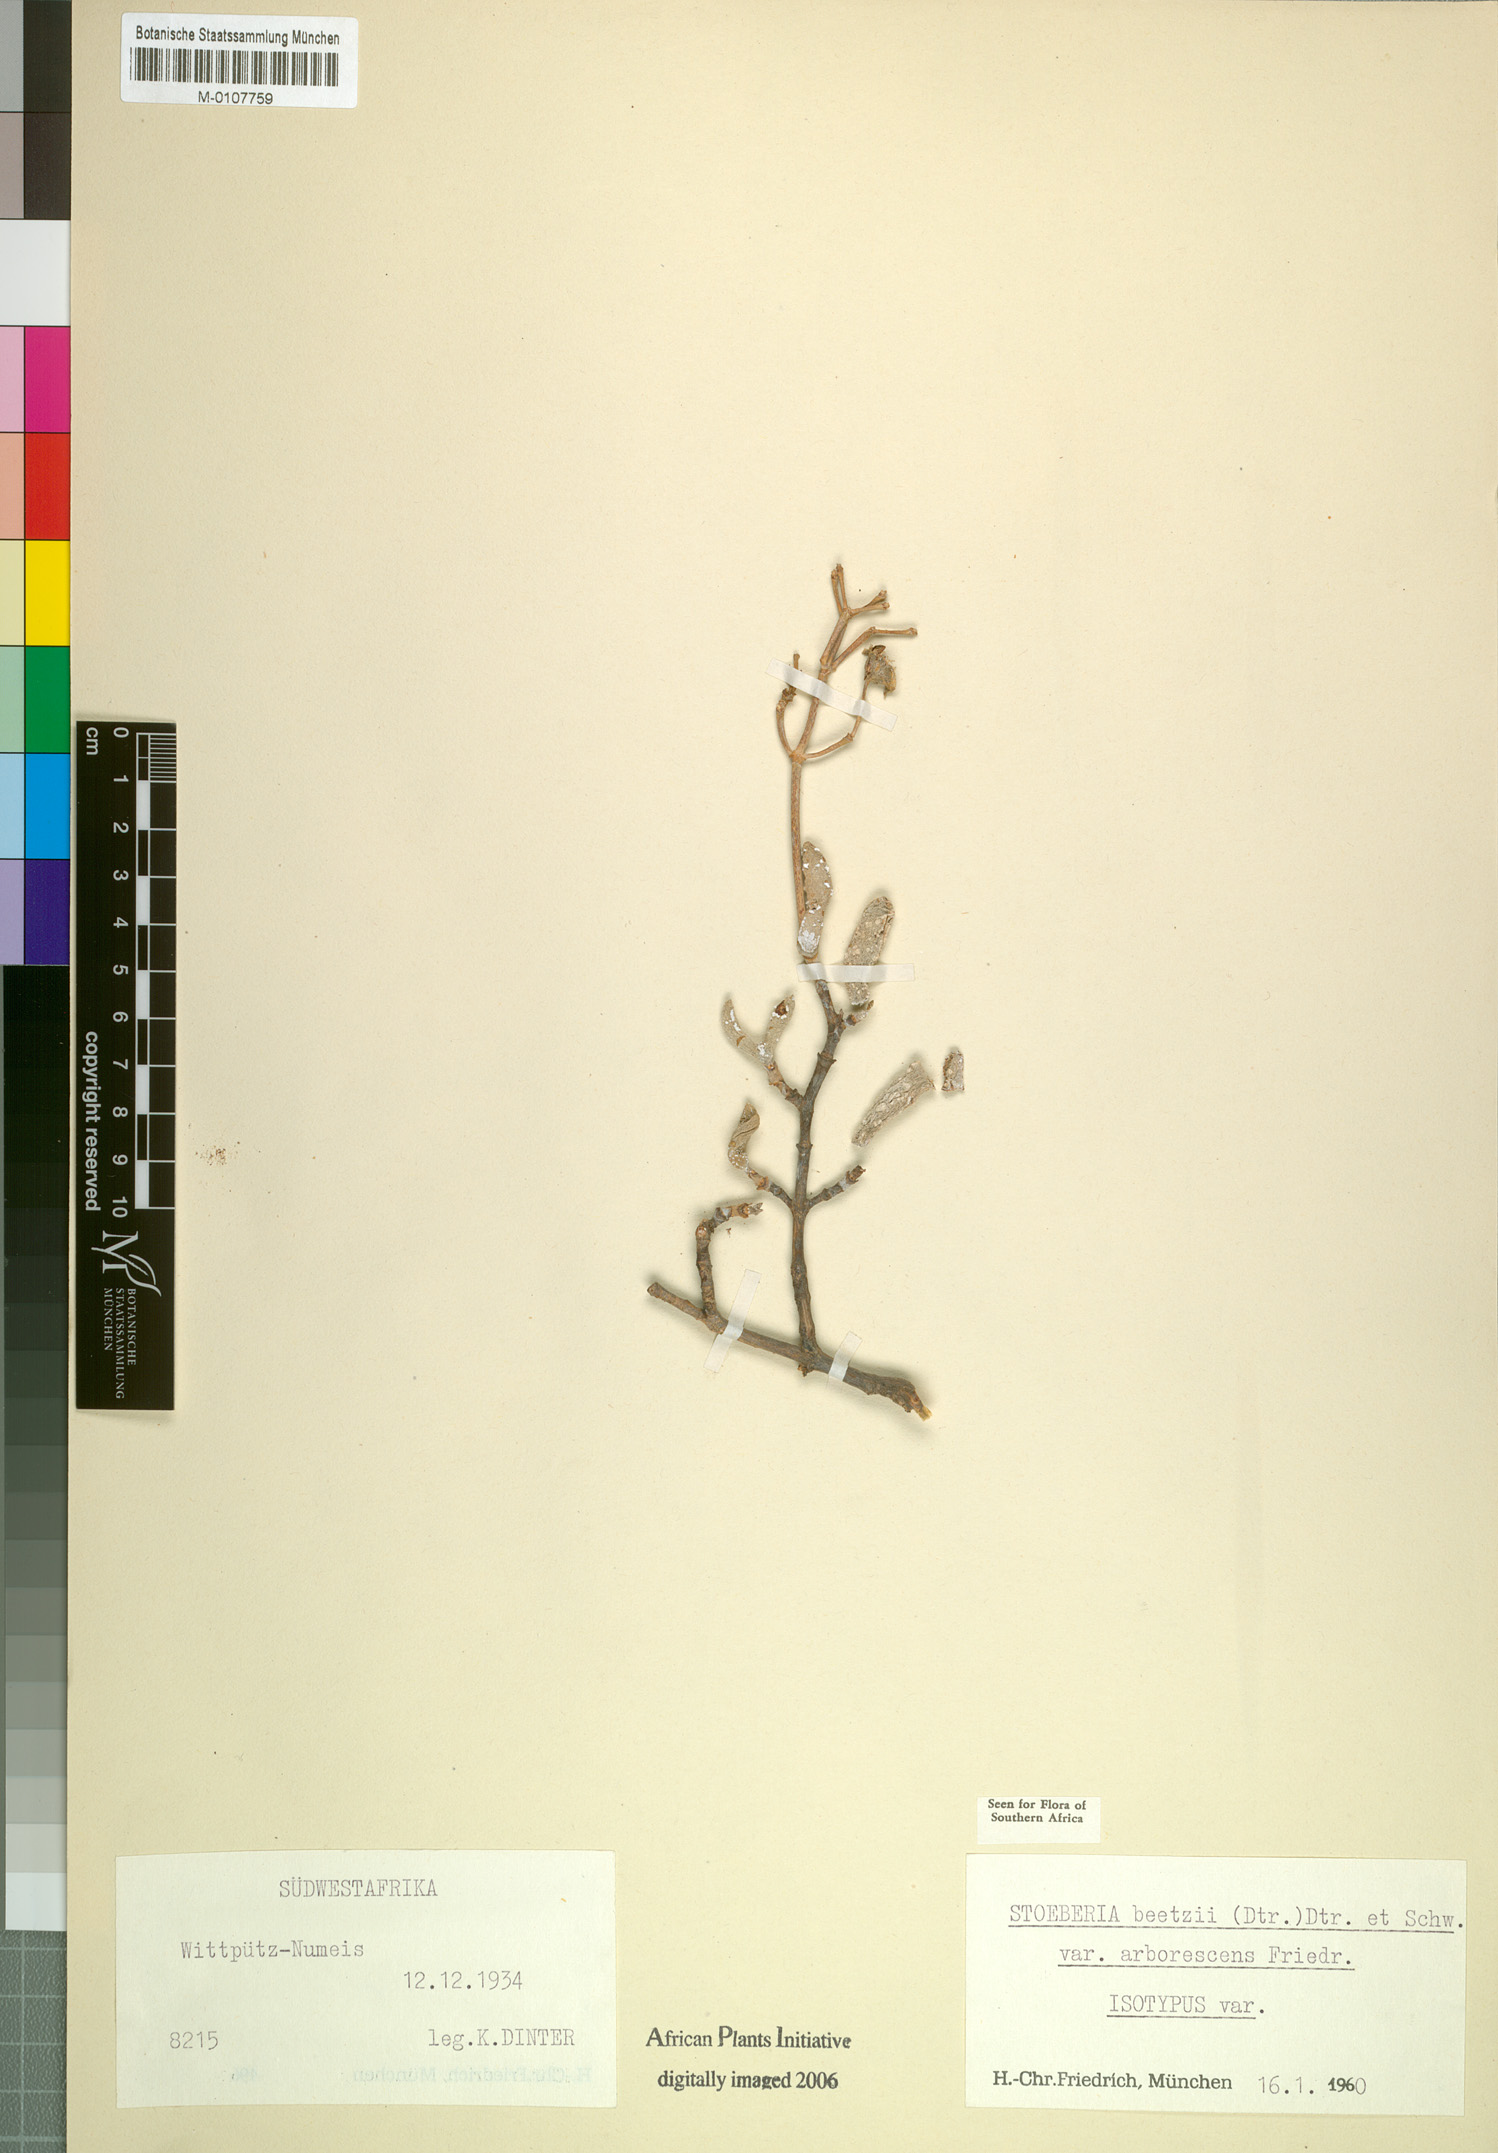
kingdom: Plantae
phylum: Tracheophyta
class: Magnoliopsida
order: Caryophyllales
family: Aizoaceae
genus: Stoeberia
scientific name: Stoeberia frutescens
